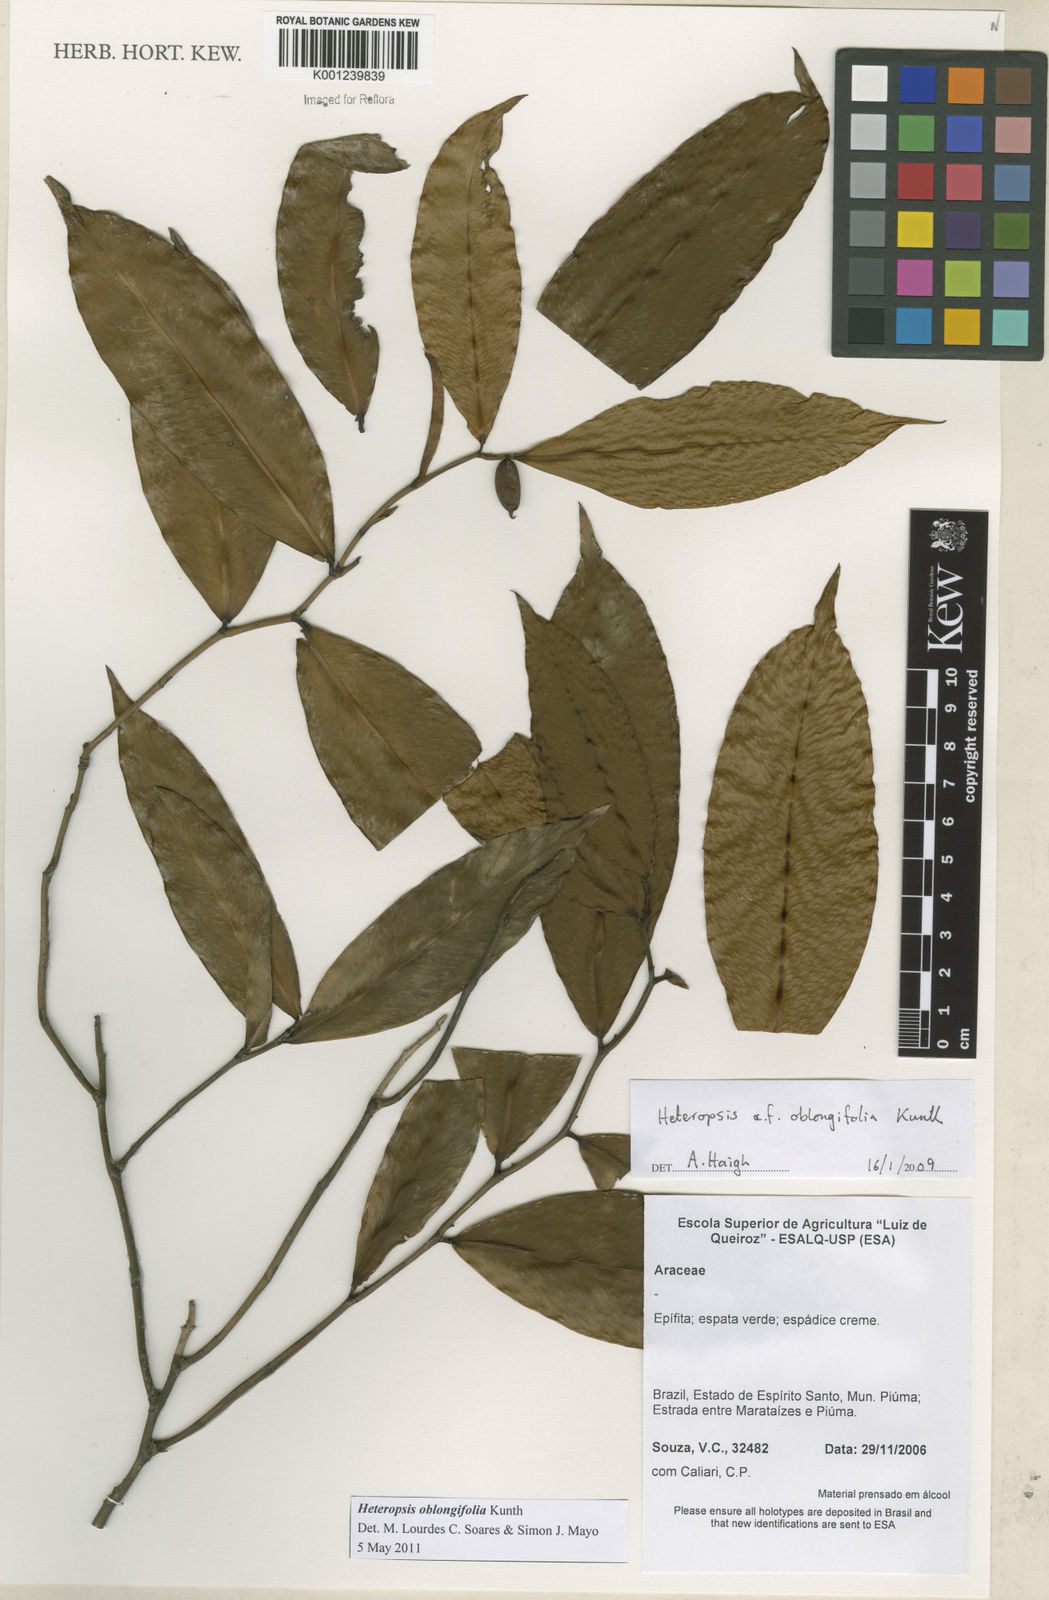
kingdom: Plantae
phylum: Tracheophyta
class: Liliopsida
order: Alismatales
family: Araceae
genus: Heteropsis
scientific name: Heteropsis oblongifolia
